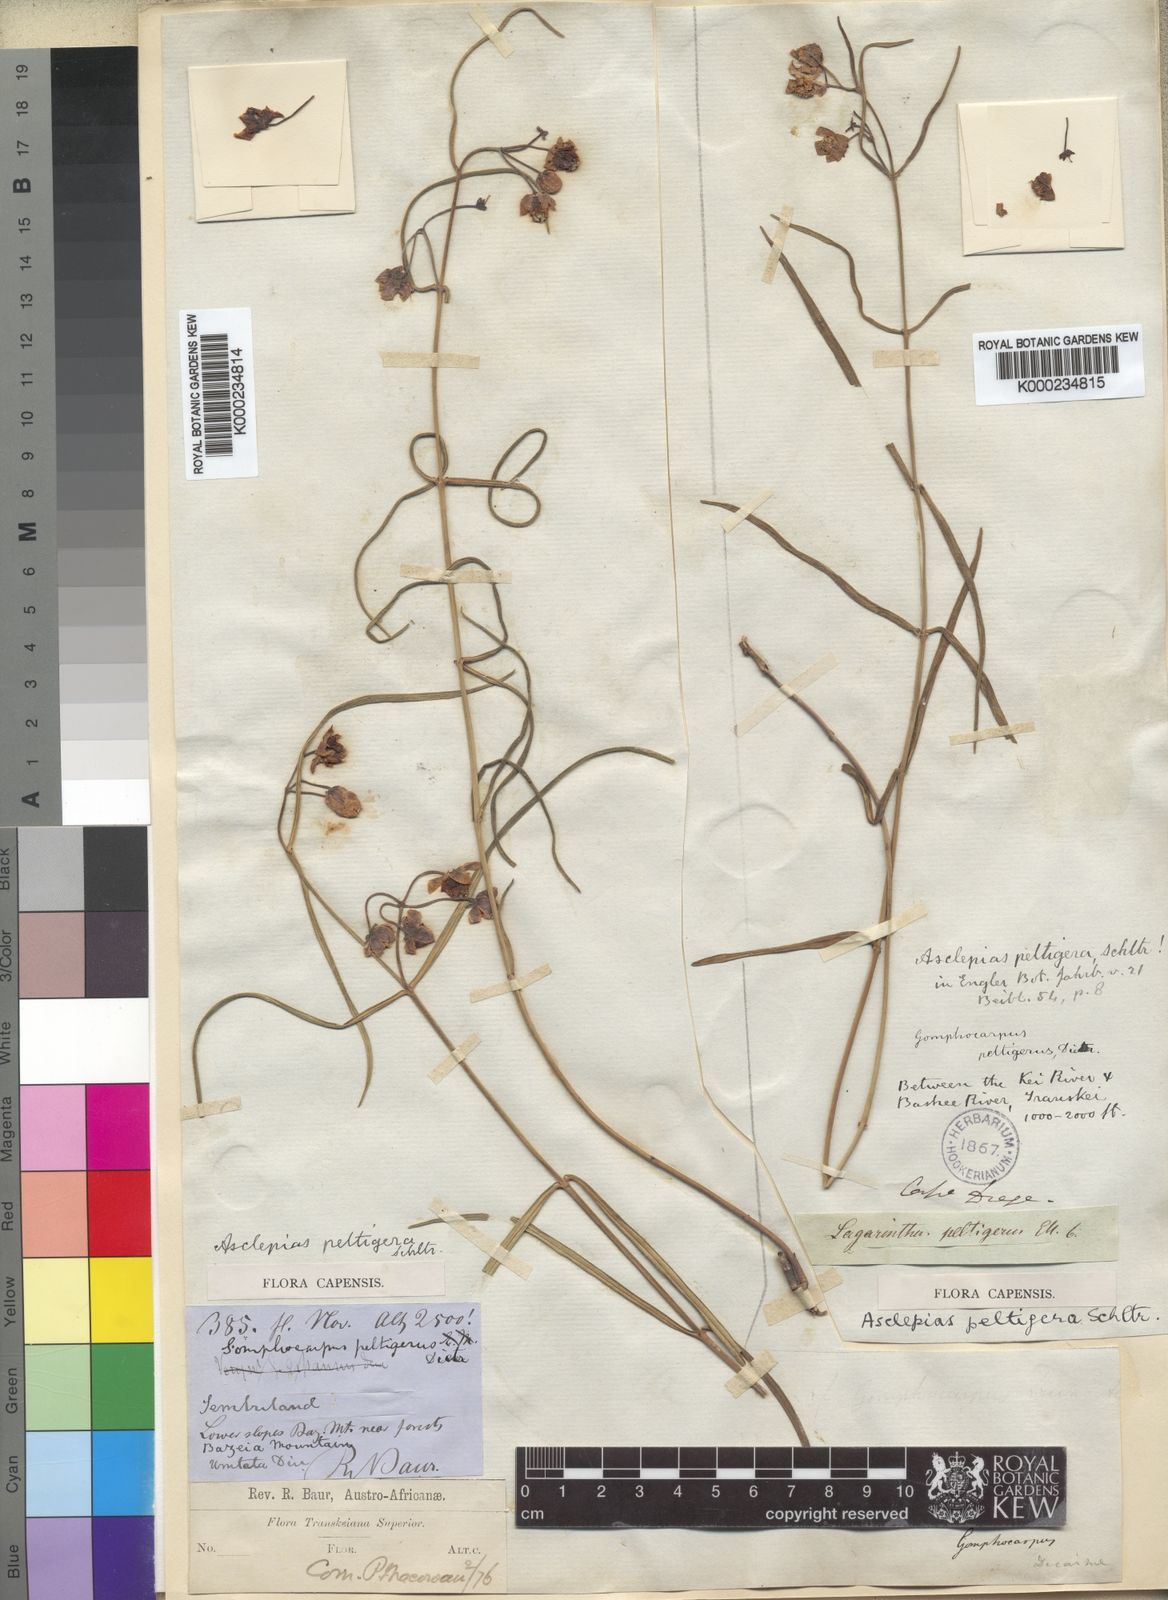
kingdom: Plantae
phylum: Tracheophyta
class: Magnoliopsida
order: Gentianales
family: Apocynaceae
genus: Asclepias
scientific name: Asclepias peltigera
